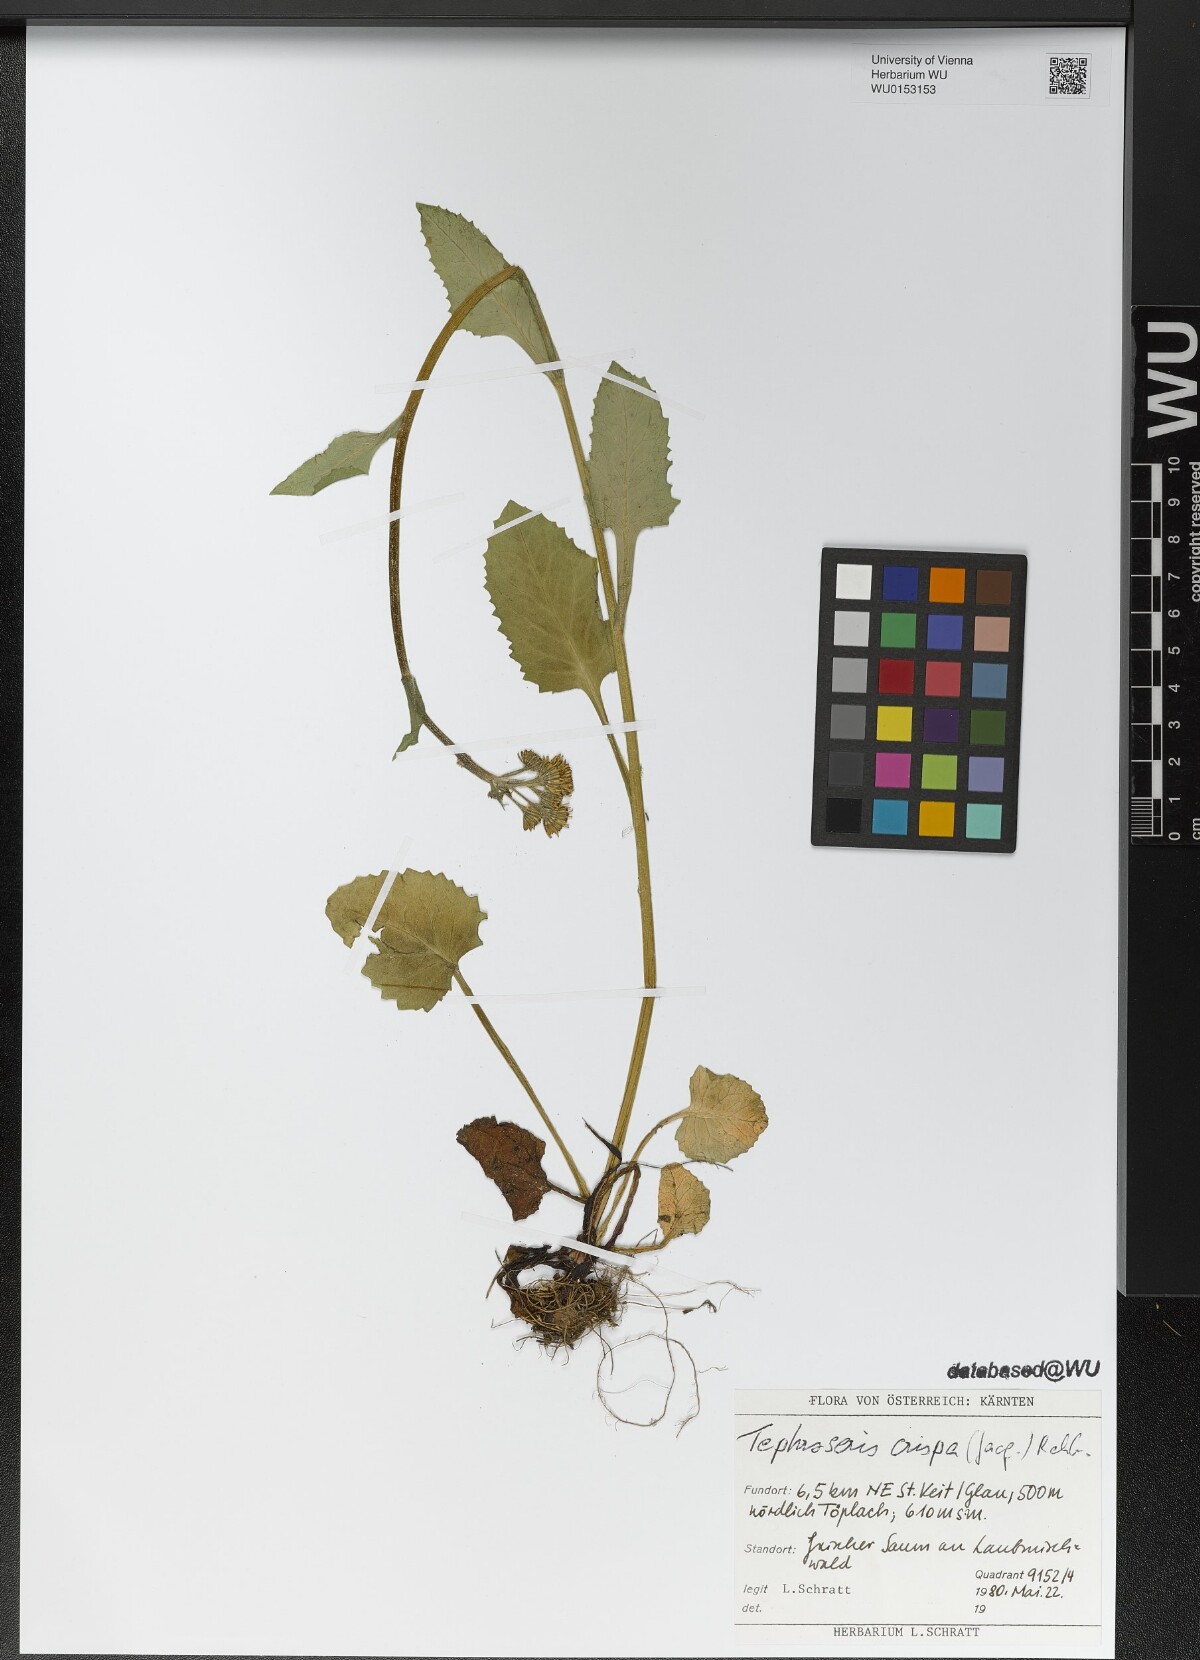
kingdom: Plantae
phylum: Tracheophyta
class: Magnoliopsida
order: Asterales
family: Asteraceae
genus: Tephroseris
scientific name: Tephroseris crispa
